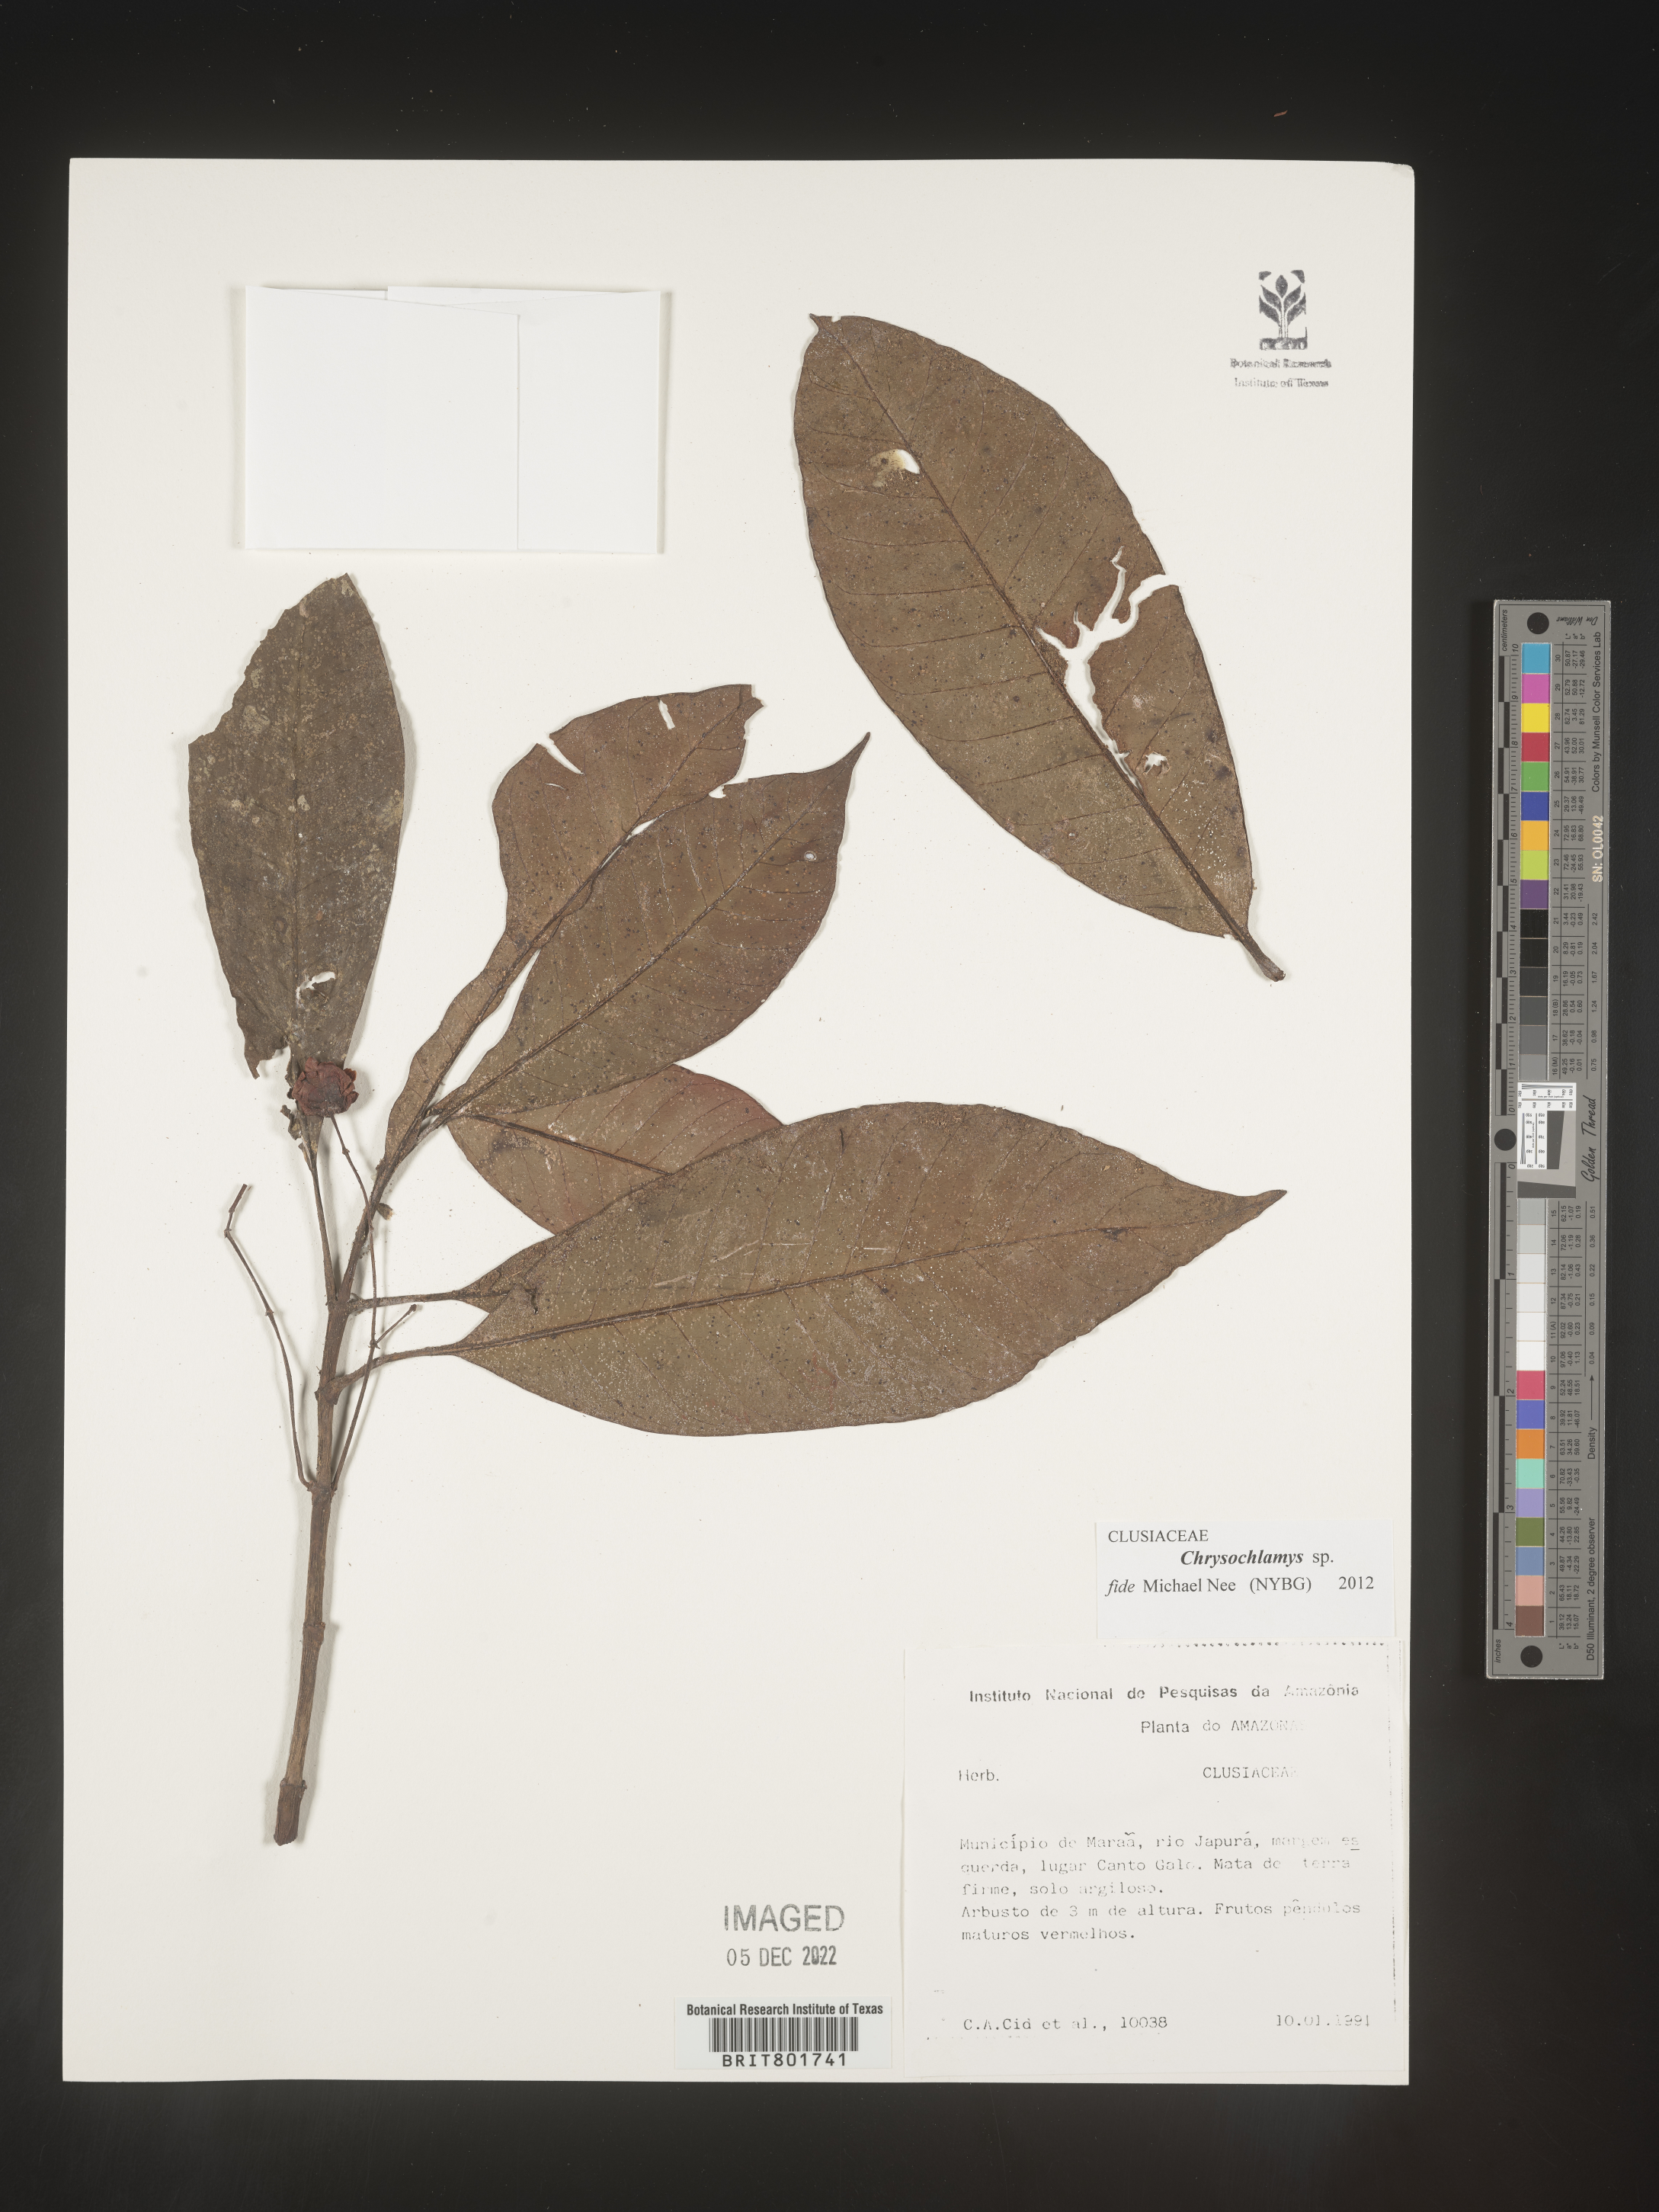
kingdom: Plantae
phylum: Tracheophyta
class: Magnoliopsida
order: Malpighiales
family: Clusiaceae
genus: Chrysochlamys
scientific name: Chrysochlamys
